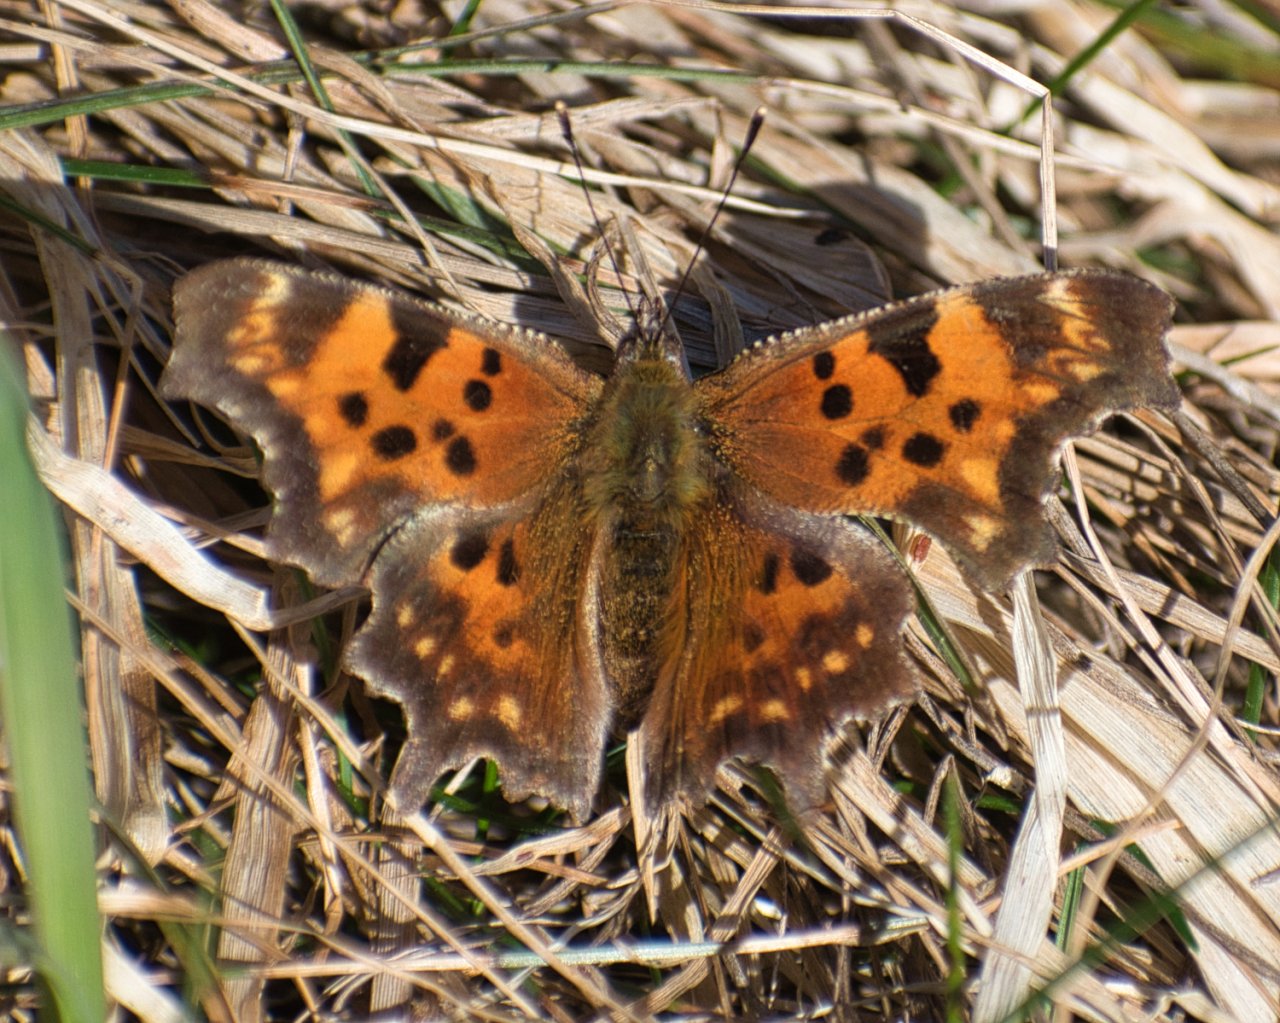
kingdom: Animalia
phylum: Arthropoda
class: Insecta
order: Lepidoptera
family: Nymphalidae
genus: Polygonia
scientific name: Polygonia faunus
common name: Green Comma
